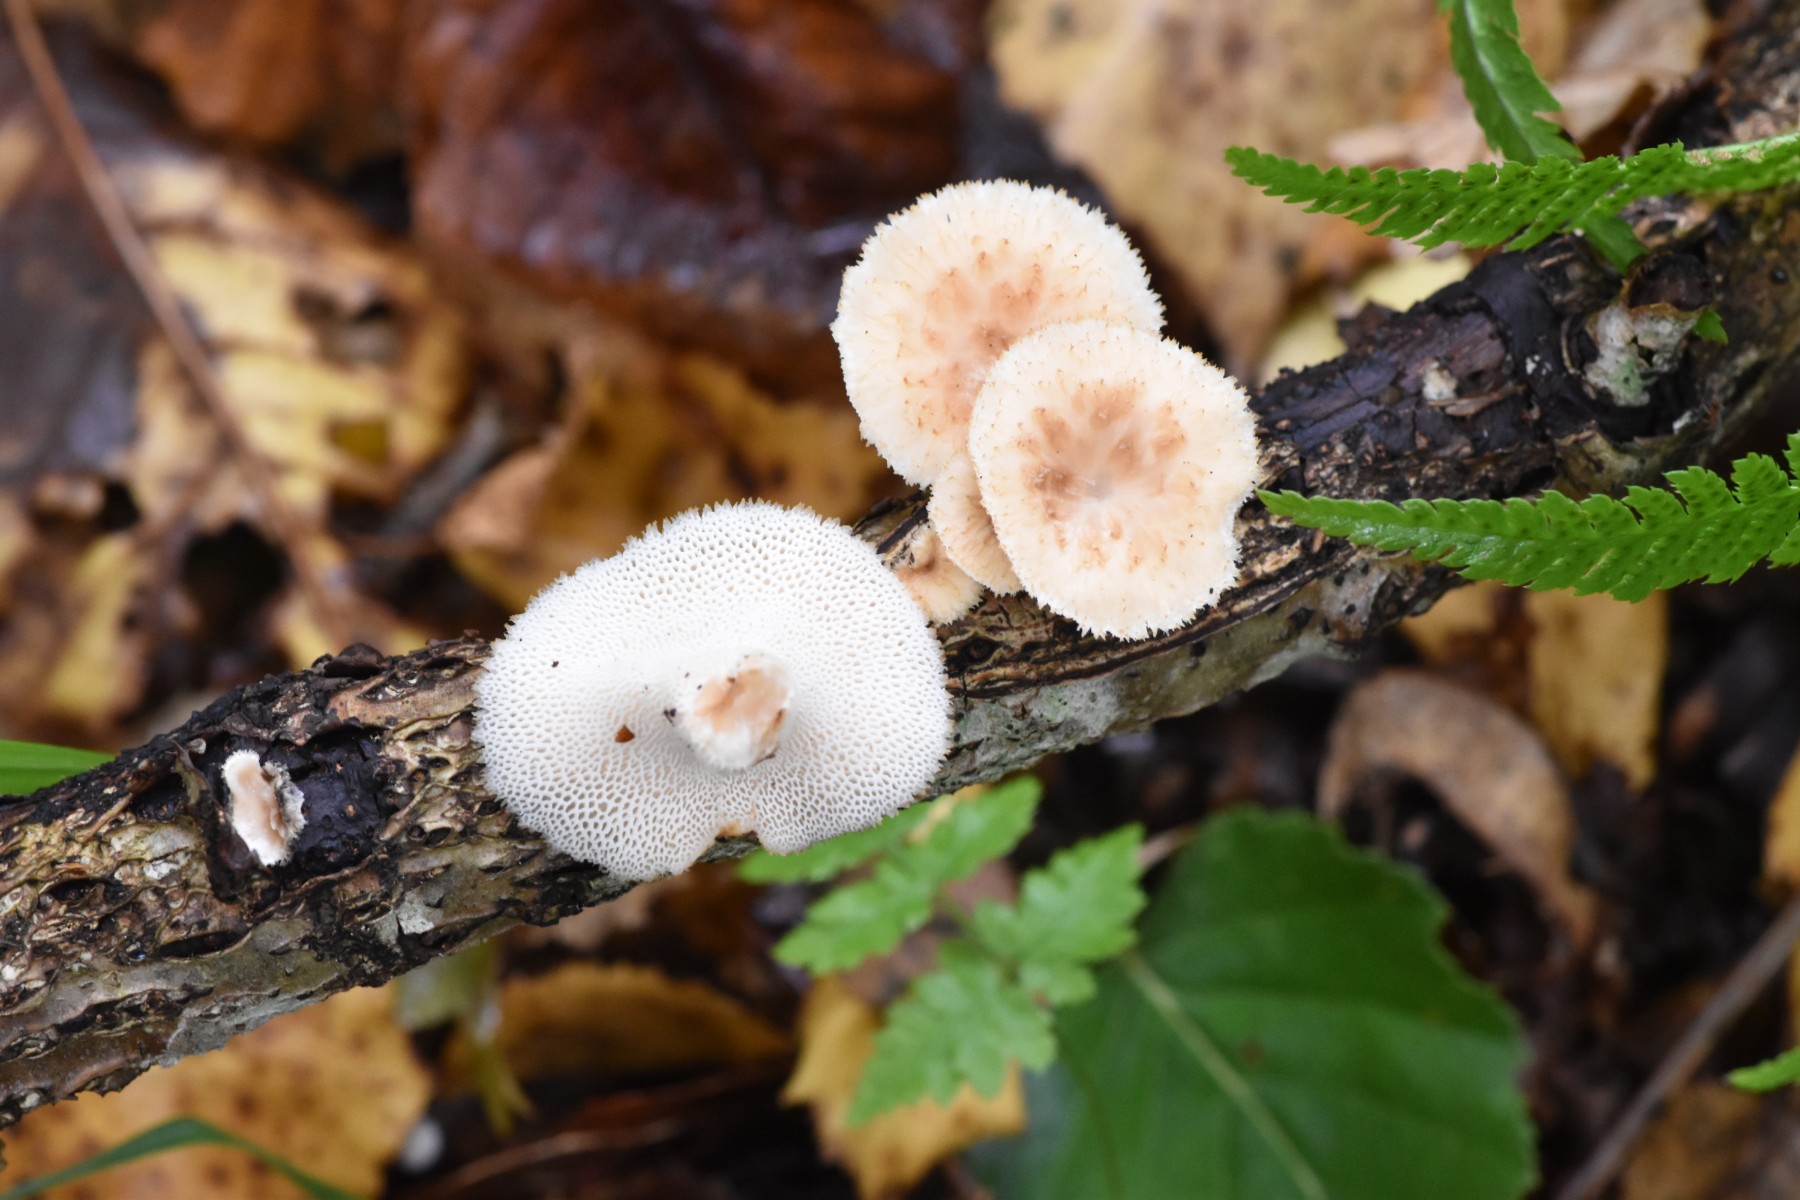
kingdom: Fungi
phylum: Basidiomycota
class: Agaricomycetes
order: Polyporales
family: Polyporaceae
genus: Polyporus
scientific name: Polyporus tuberaster
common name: knoldet stilkporesvamp
